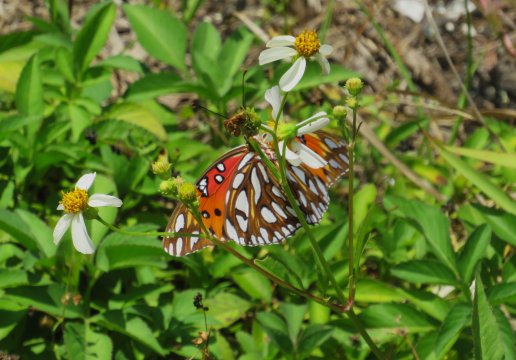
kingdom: Animalia
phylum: Arthropoda
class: Insecta
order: Lepidoptera
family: Nymphalidae
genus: Dione
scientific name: Dione vanillae
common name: Gulf Fritillary
